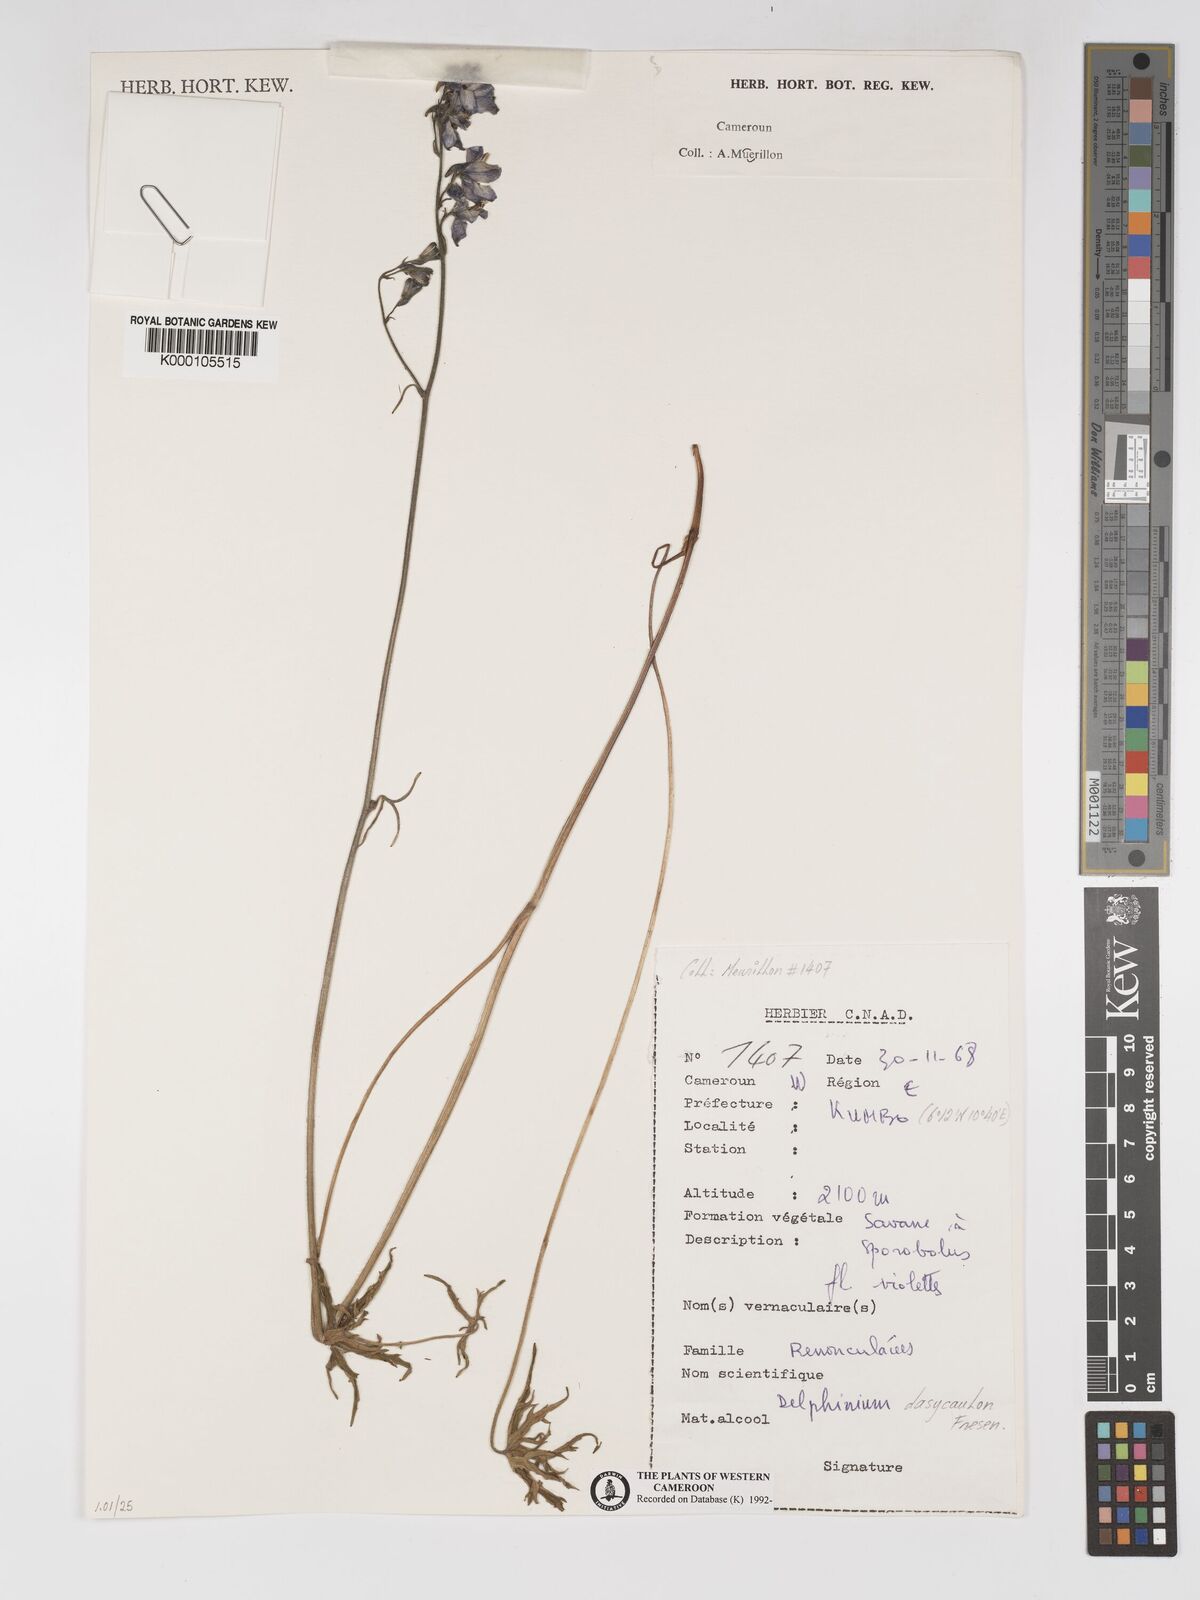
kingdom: Plantae
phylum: Tracheophyta
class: Magnoliopsida
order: Ranunculales
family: Ranunculaceae
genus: Delphinium
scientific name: Delphinium dasycaulon
